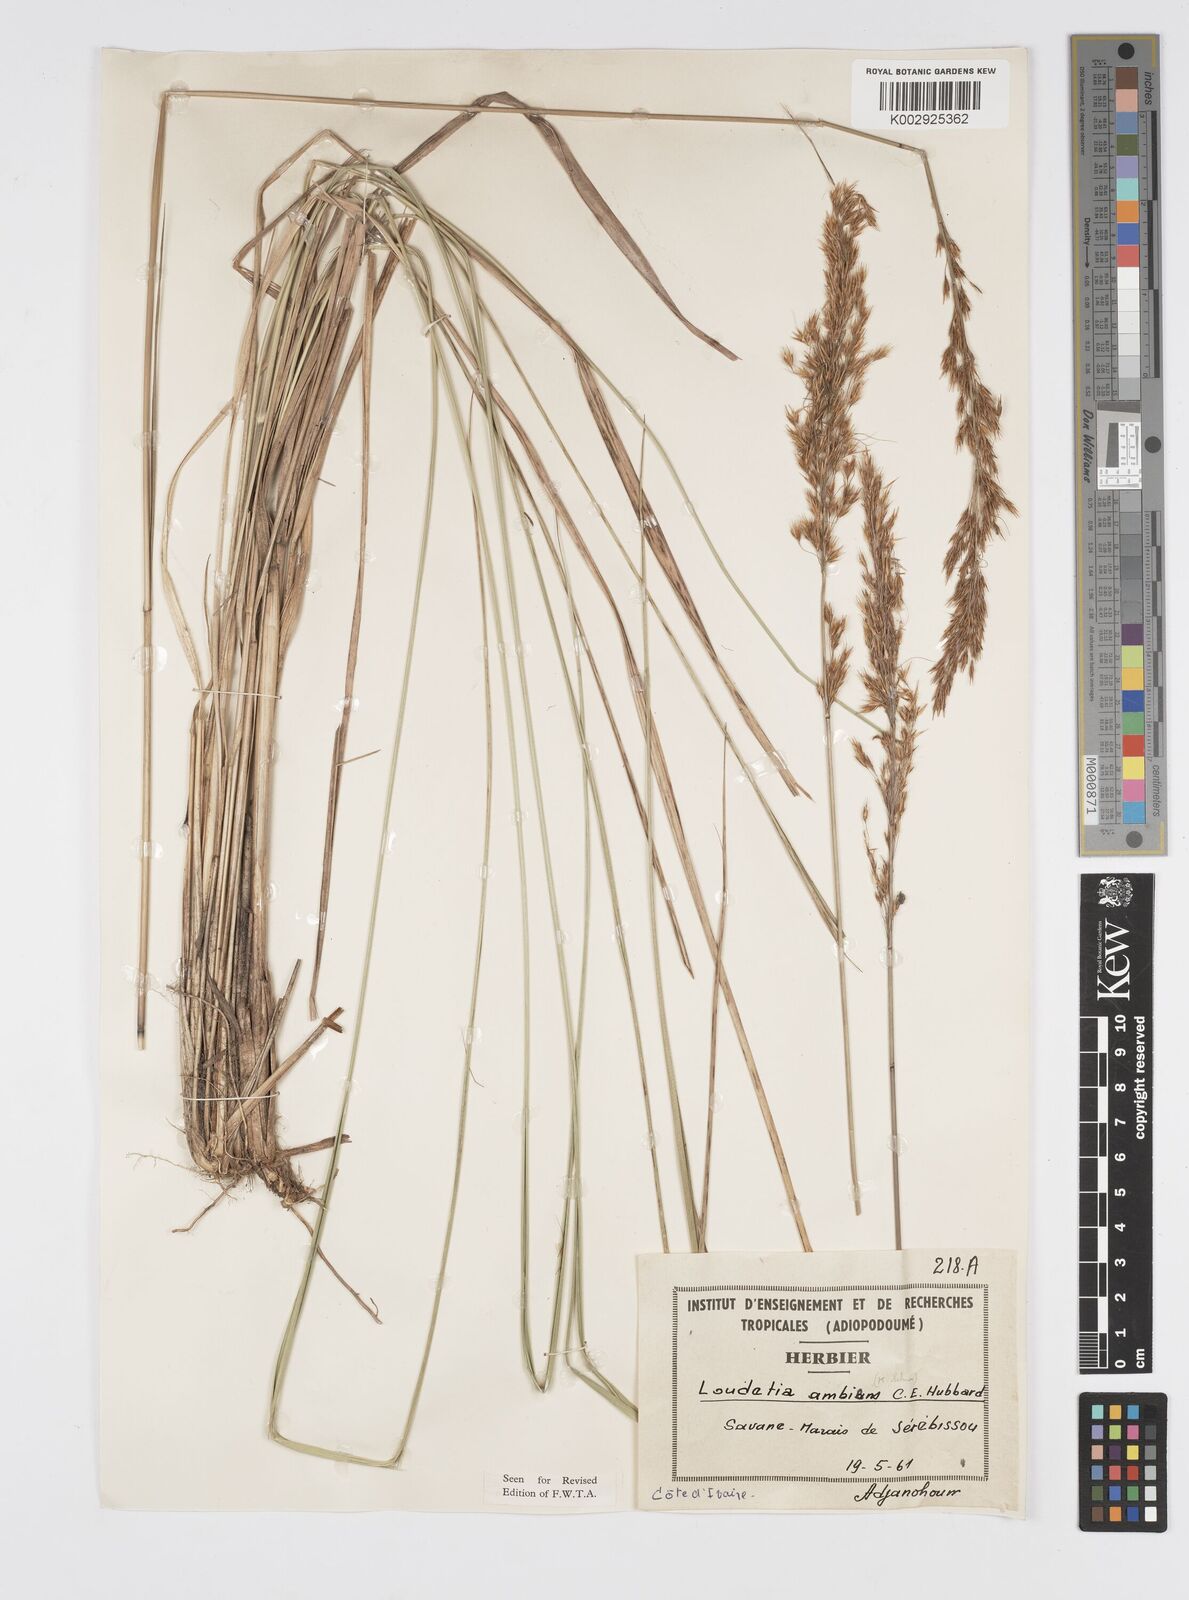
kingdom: Plantae
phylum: Tracheophyta
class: Liliopsida
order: Poales
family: Poaceae
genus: Loudetiopsis
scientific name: Loudetiopsis ambiens
